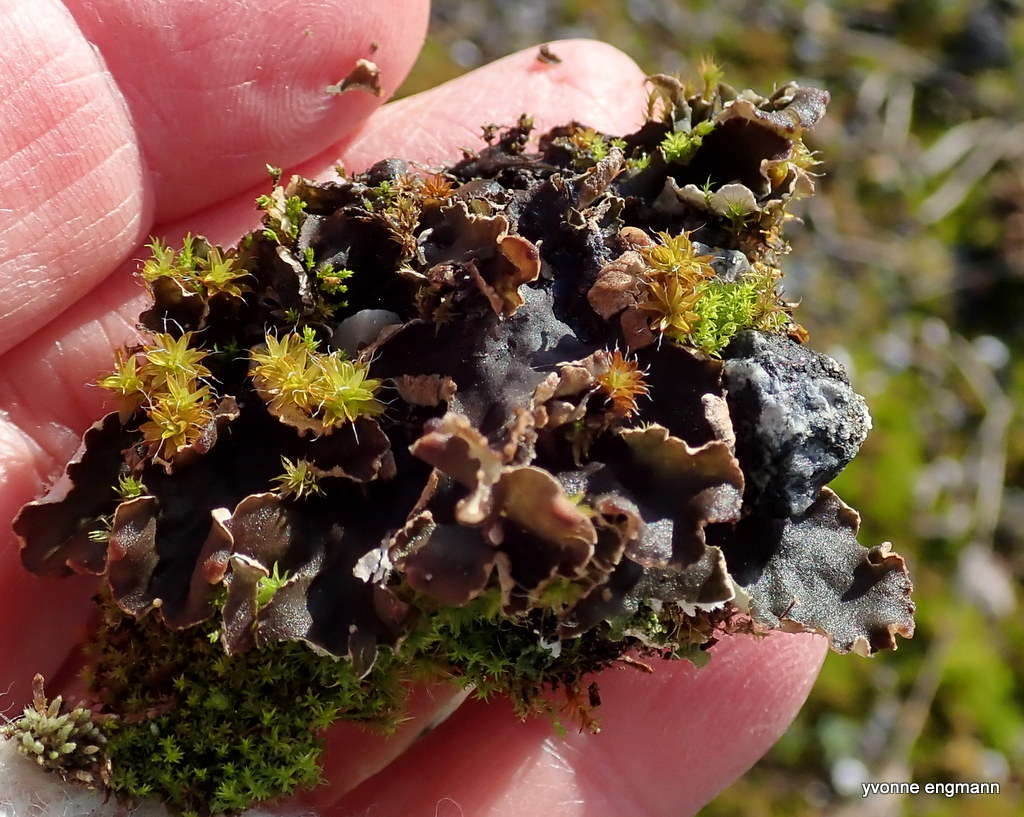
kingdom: Fungi
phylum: Ascomycota
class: Lecanoromycetes
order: Peltigerales
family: Peltigeraceae
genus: Peltigera
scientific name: Peltigera didactyla
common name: liden skjoldlav
